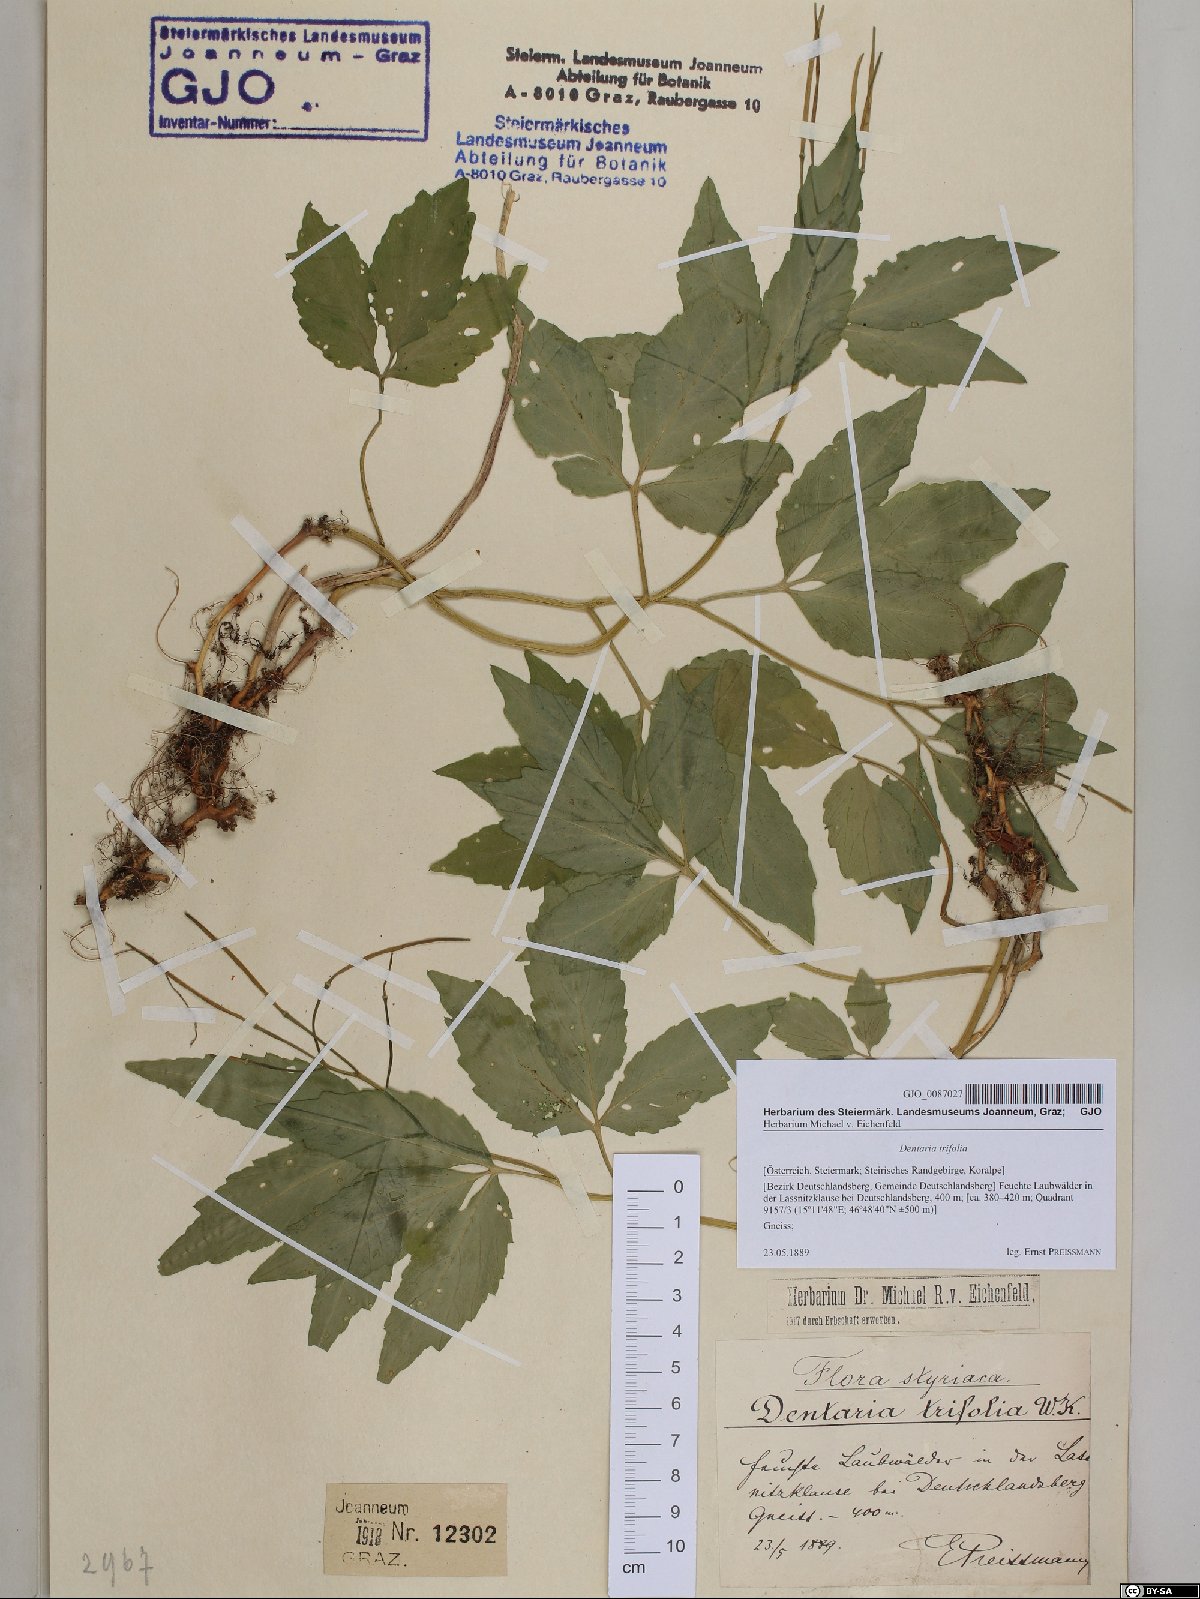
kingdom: Plantae
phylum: Tracheophyta
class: Magnoliopsida
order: Brassicales
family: Brassicaceae
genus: Cardamine
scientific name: Cardamine waldsteinii
